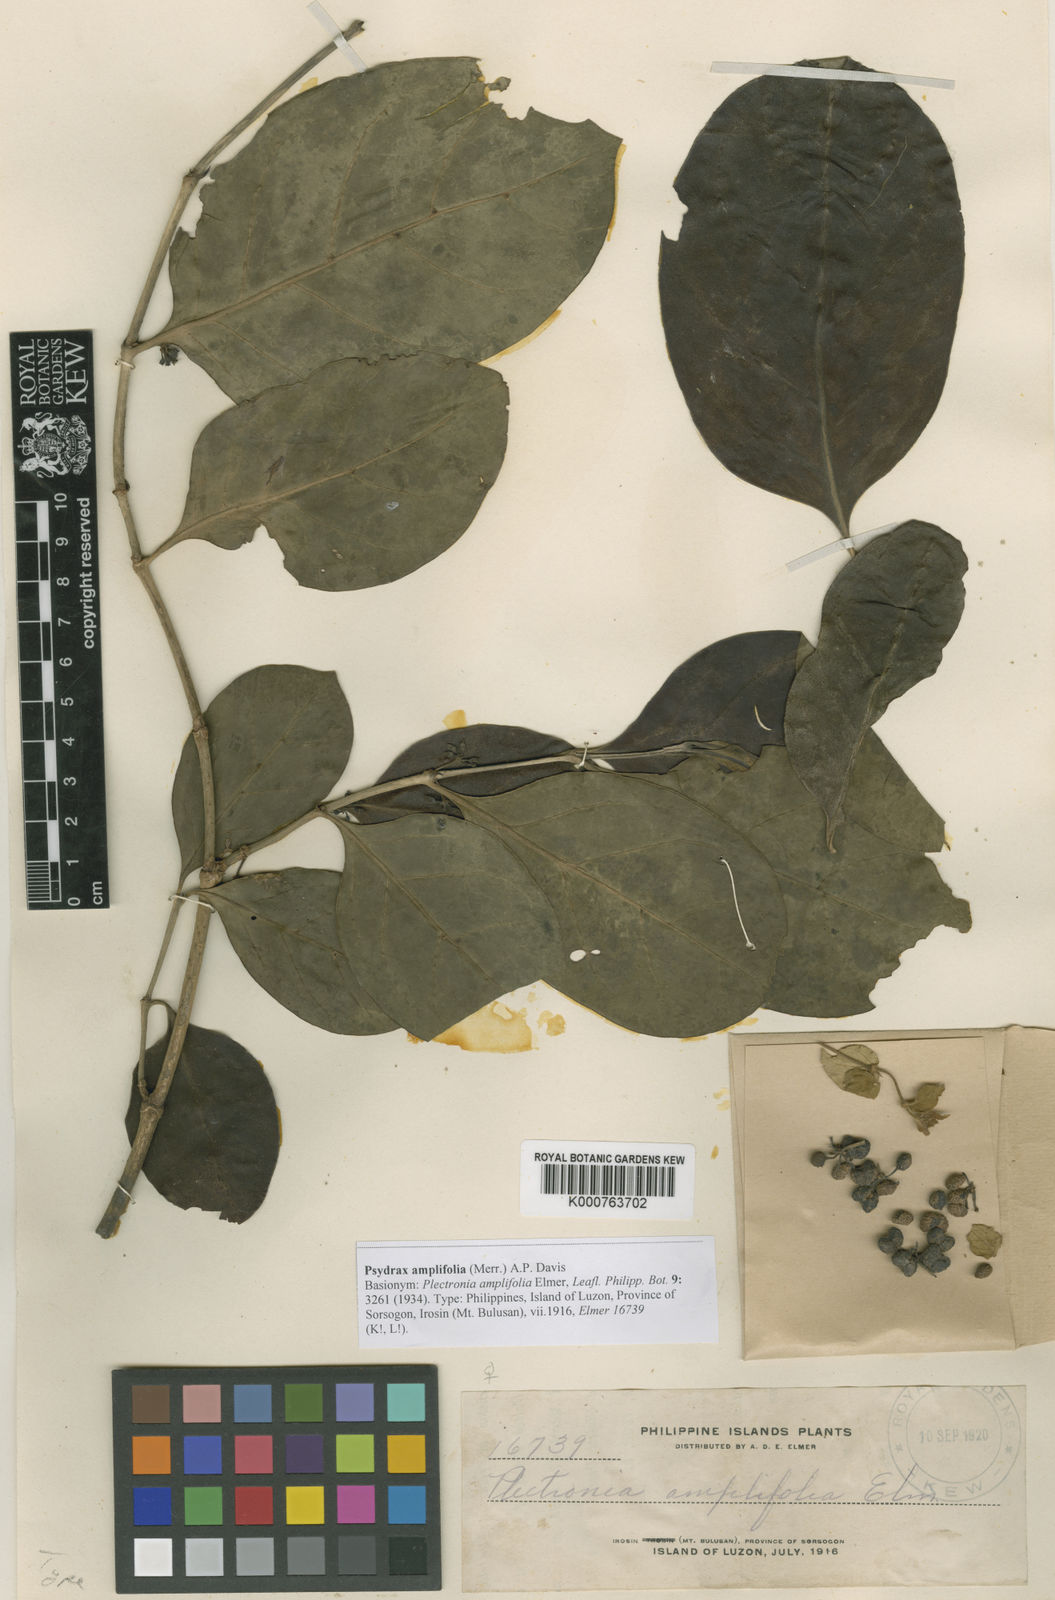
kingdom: Plantae
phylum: Tracheophyta
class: Magnoliopsida
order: Gentianales
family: Rubiaceae
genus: Psydrax
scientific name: Psydrax amplifolius
